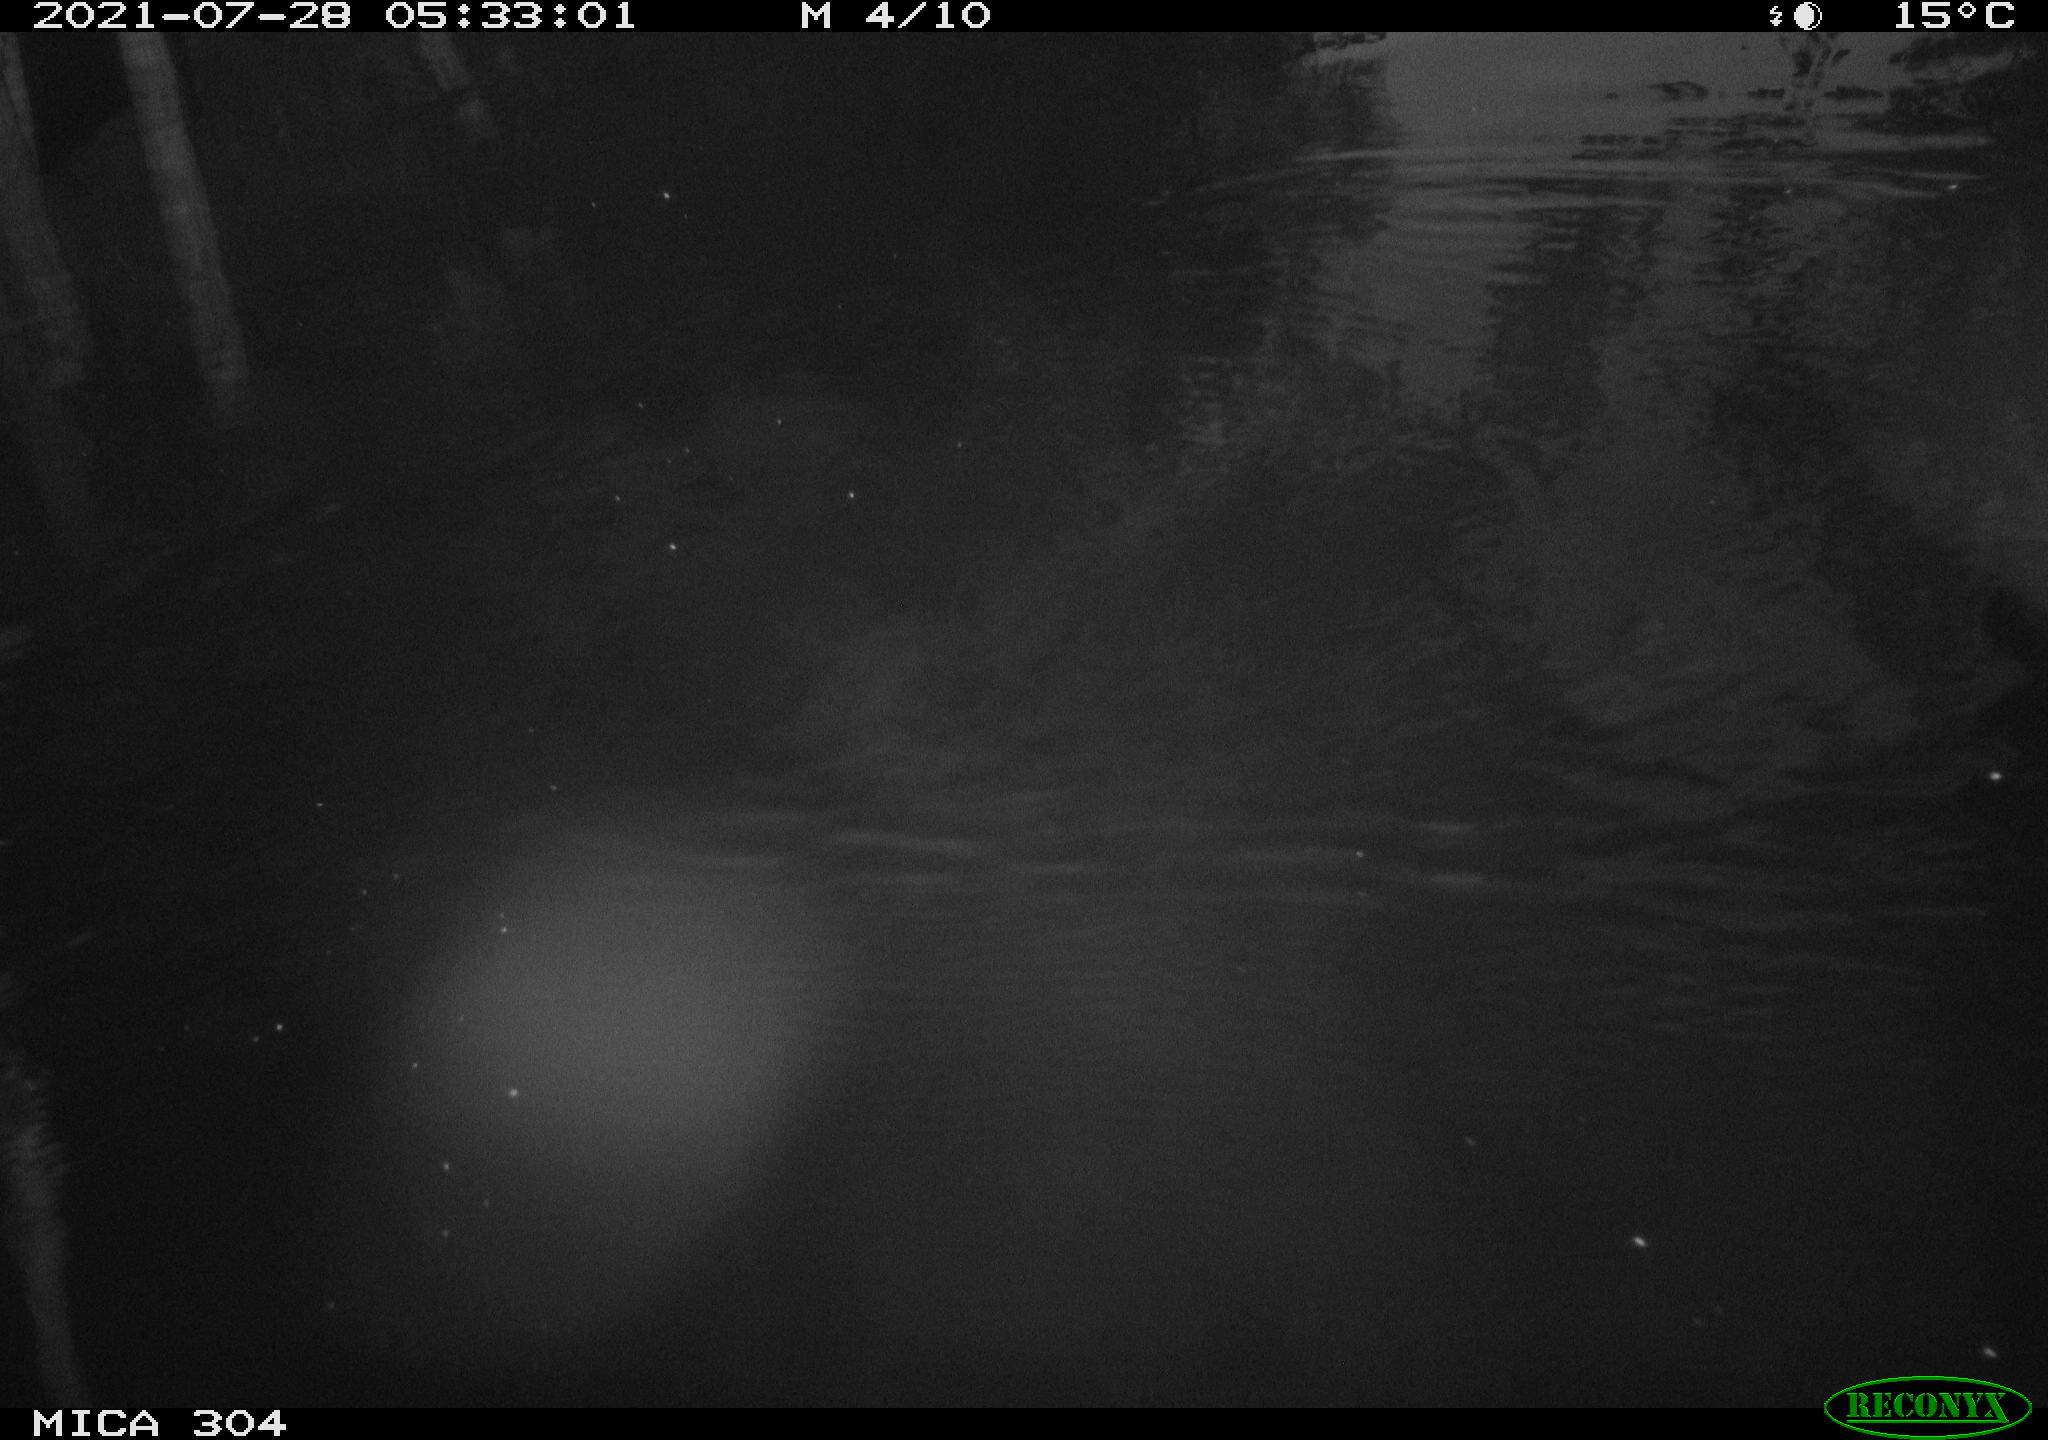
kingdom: Animalia
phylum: Chordata
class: Mammalia
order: Rodentia
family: Muridae
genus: Rattus
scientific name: Rattus norvegicus
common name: Brown rat
